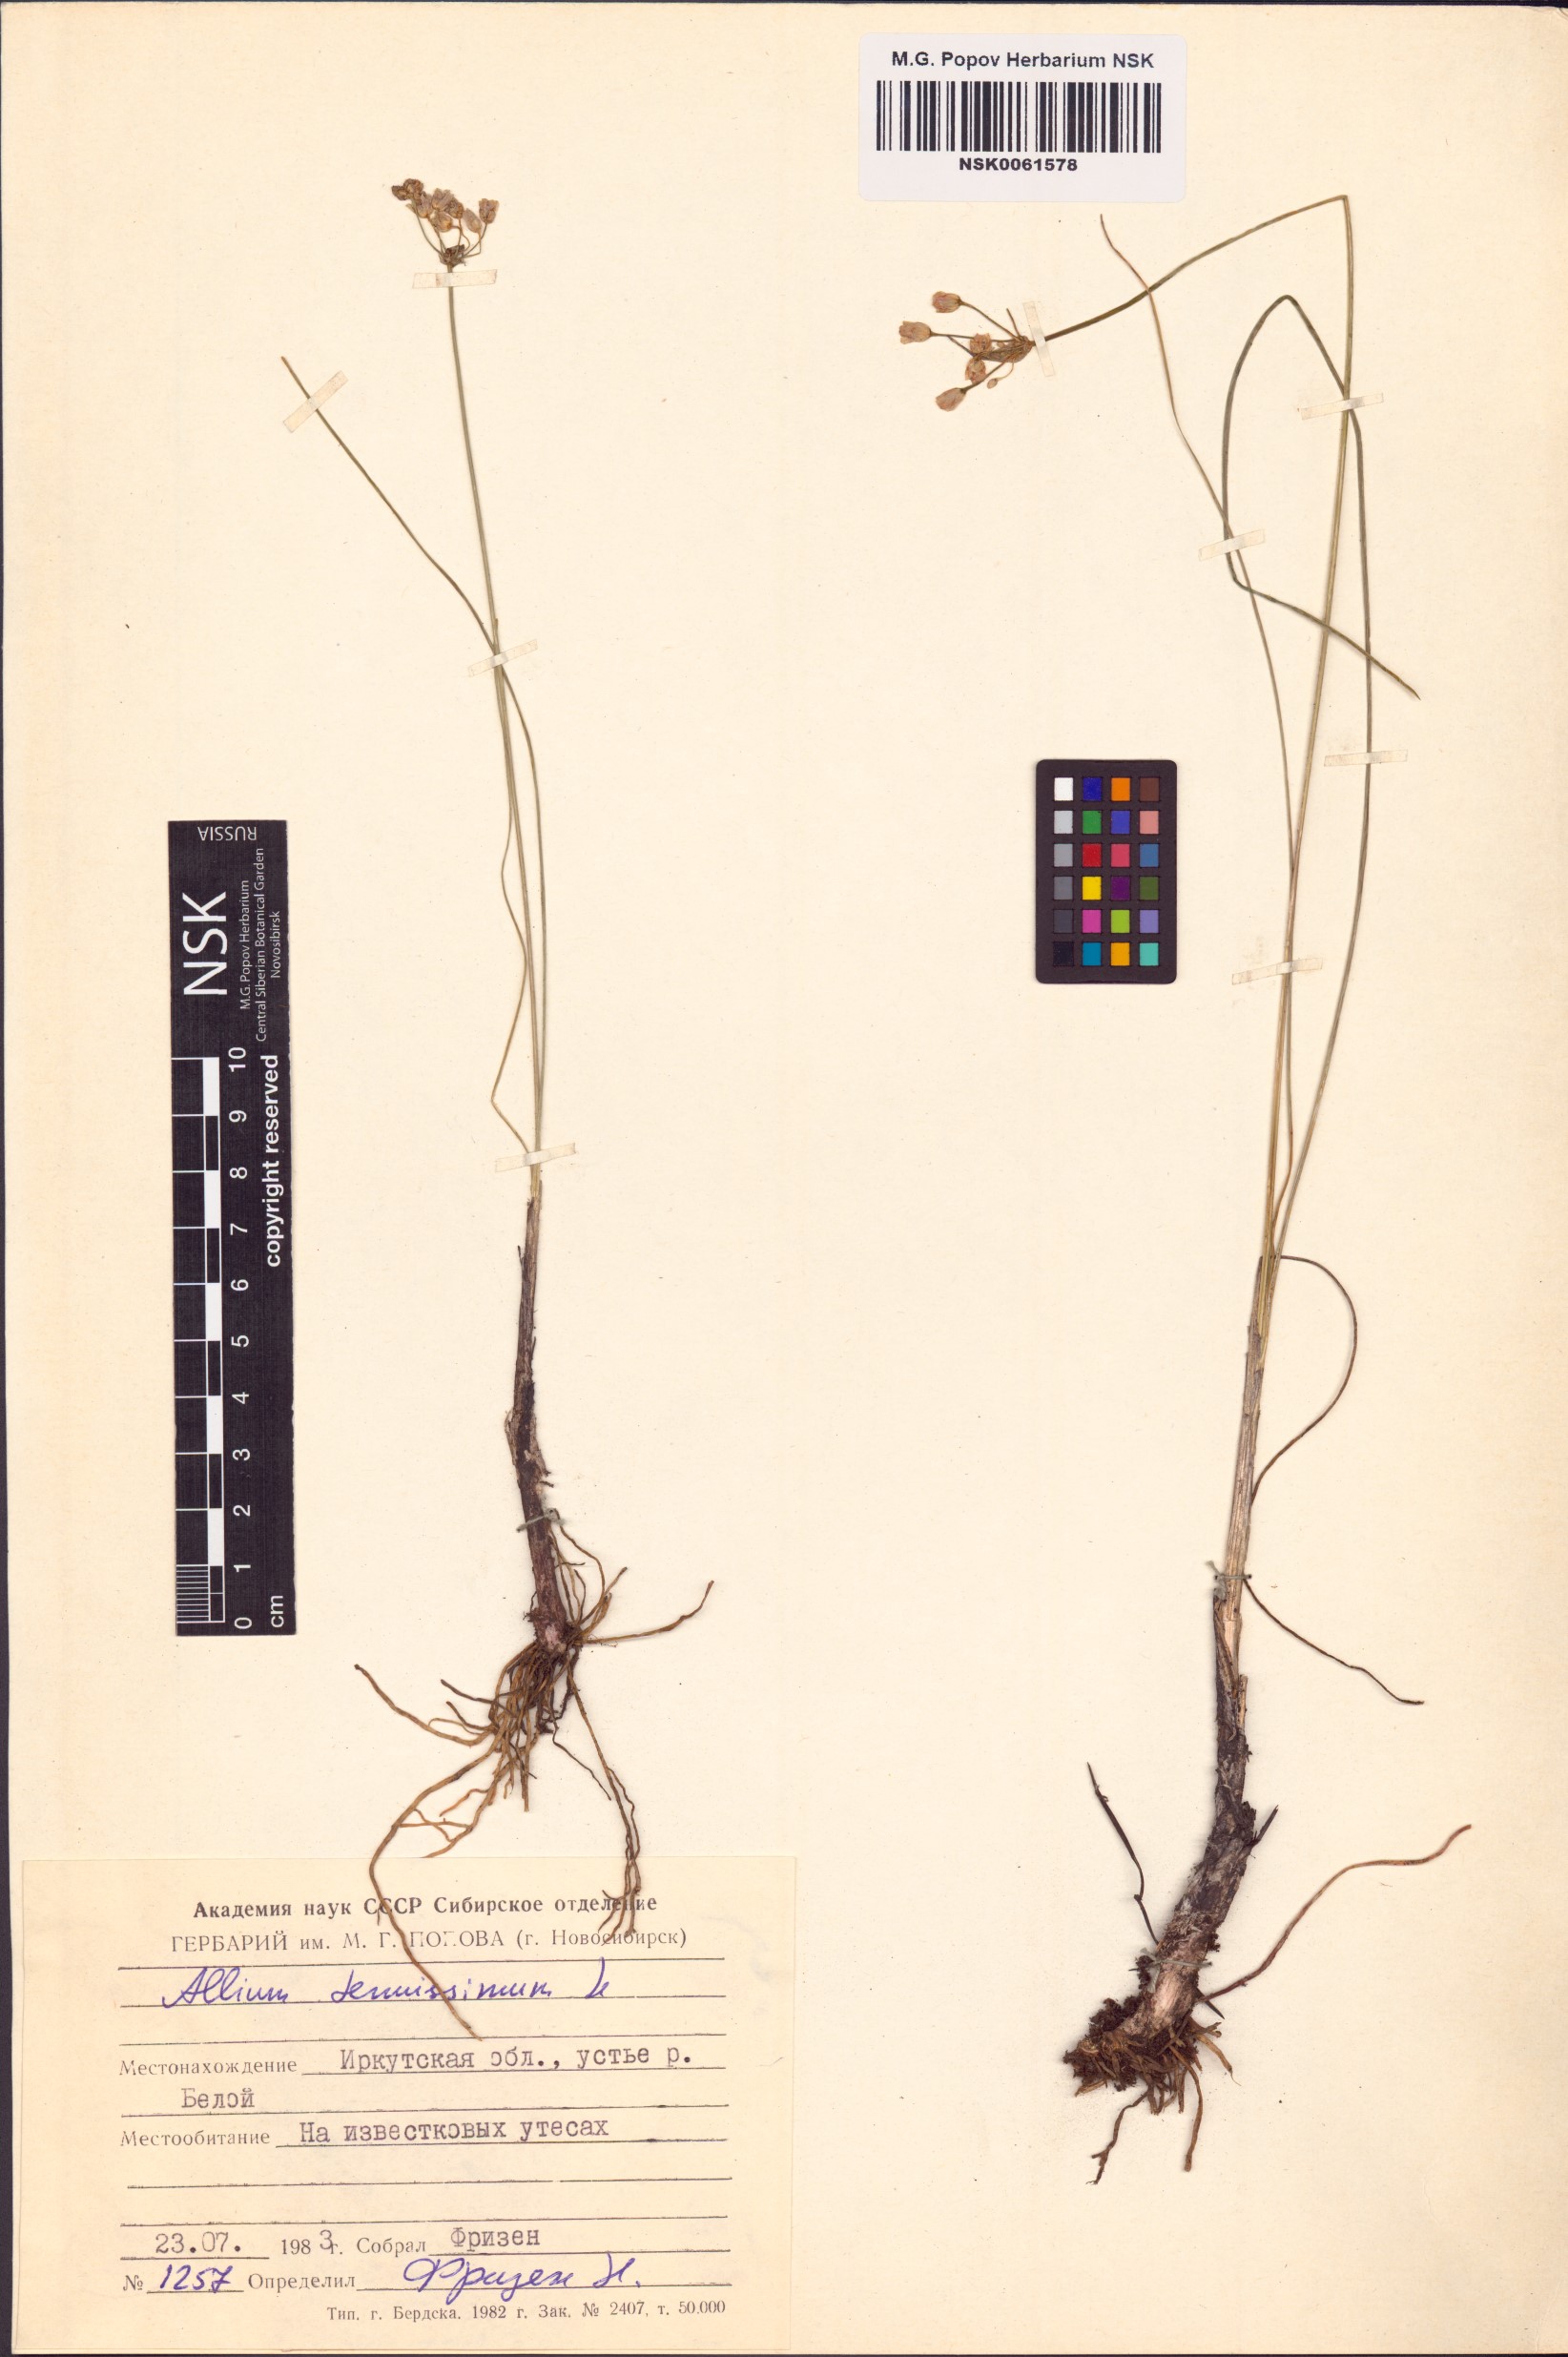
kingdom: Plantae
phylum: Tracheophyta
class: Liliopsida
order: Asparagales
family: Amaryllidaceae
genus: Allium
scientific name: Allium tenuissimum
